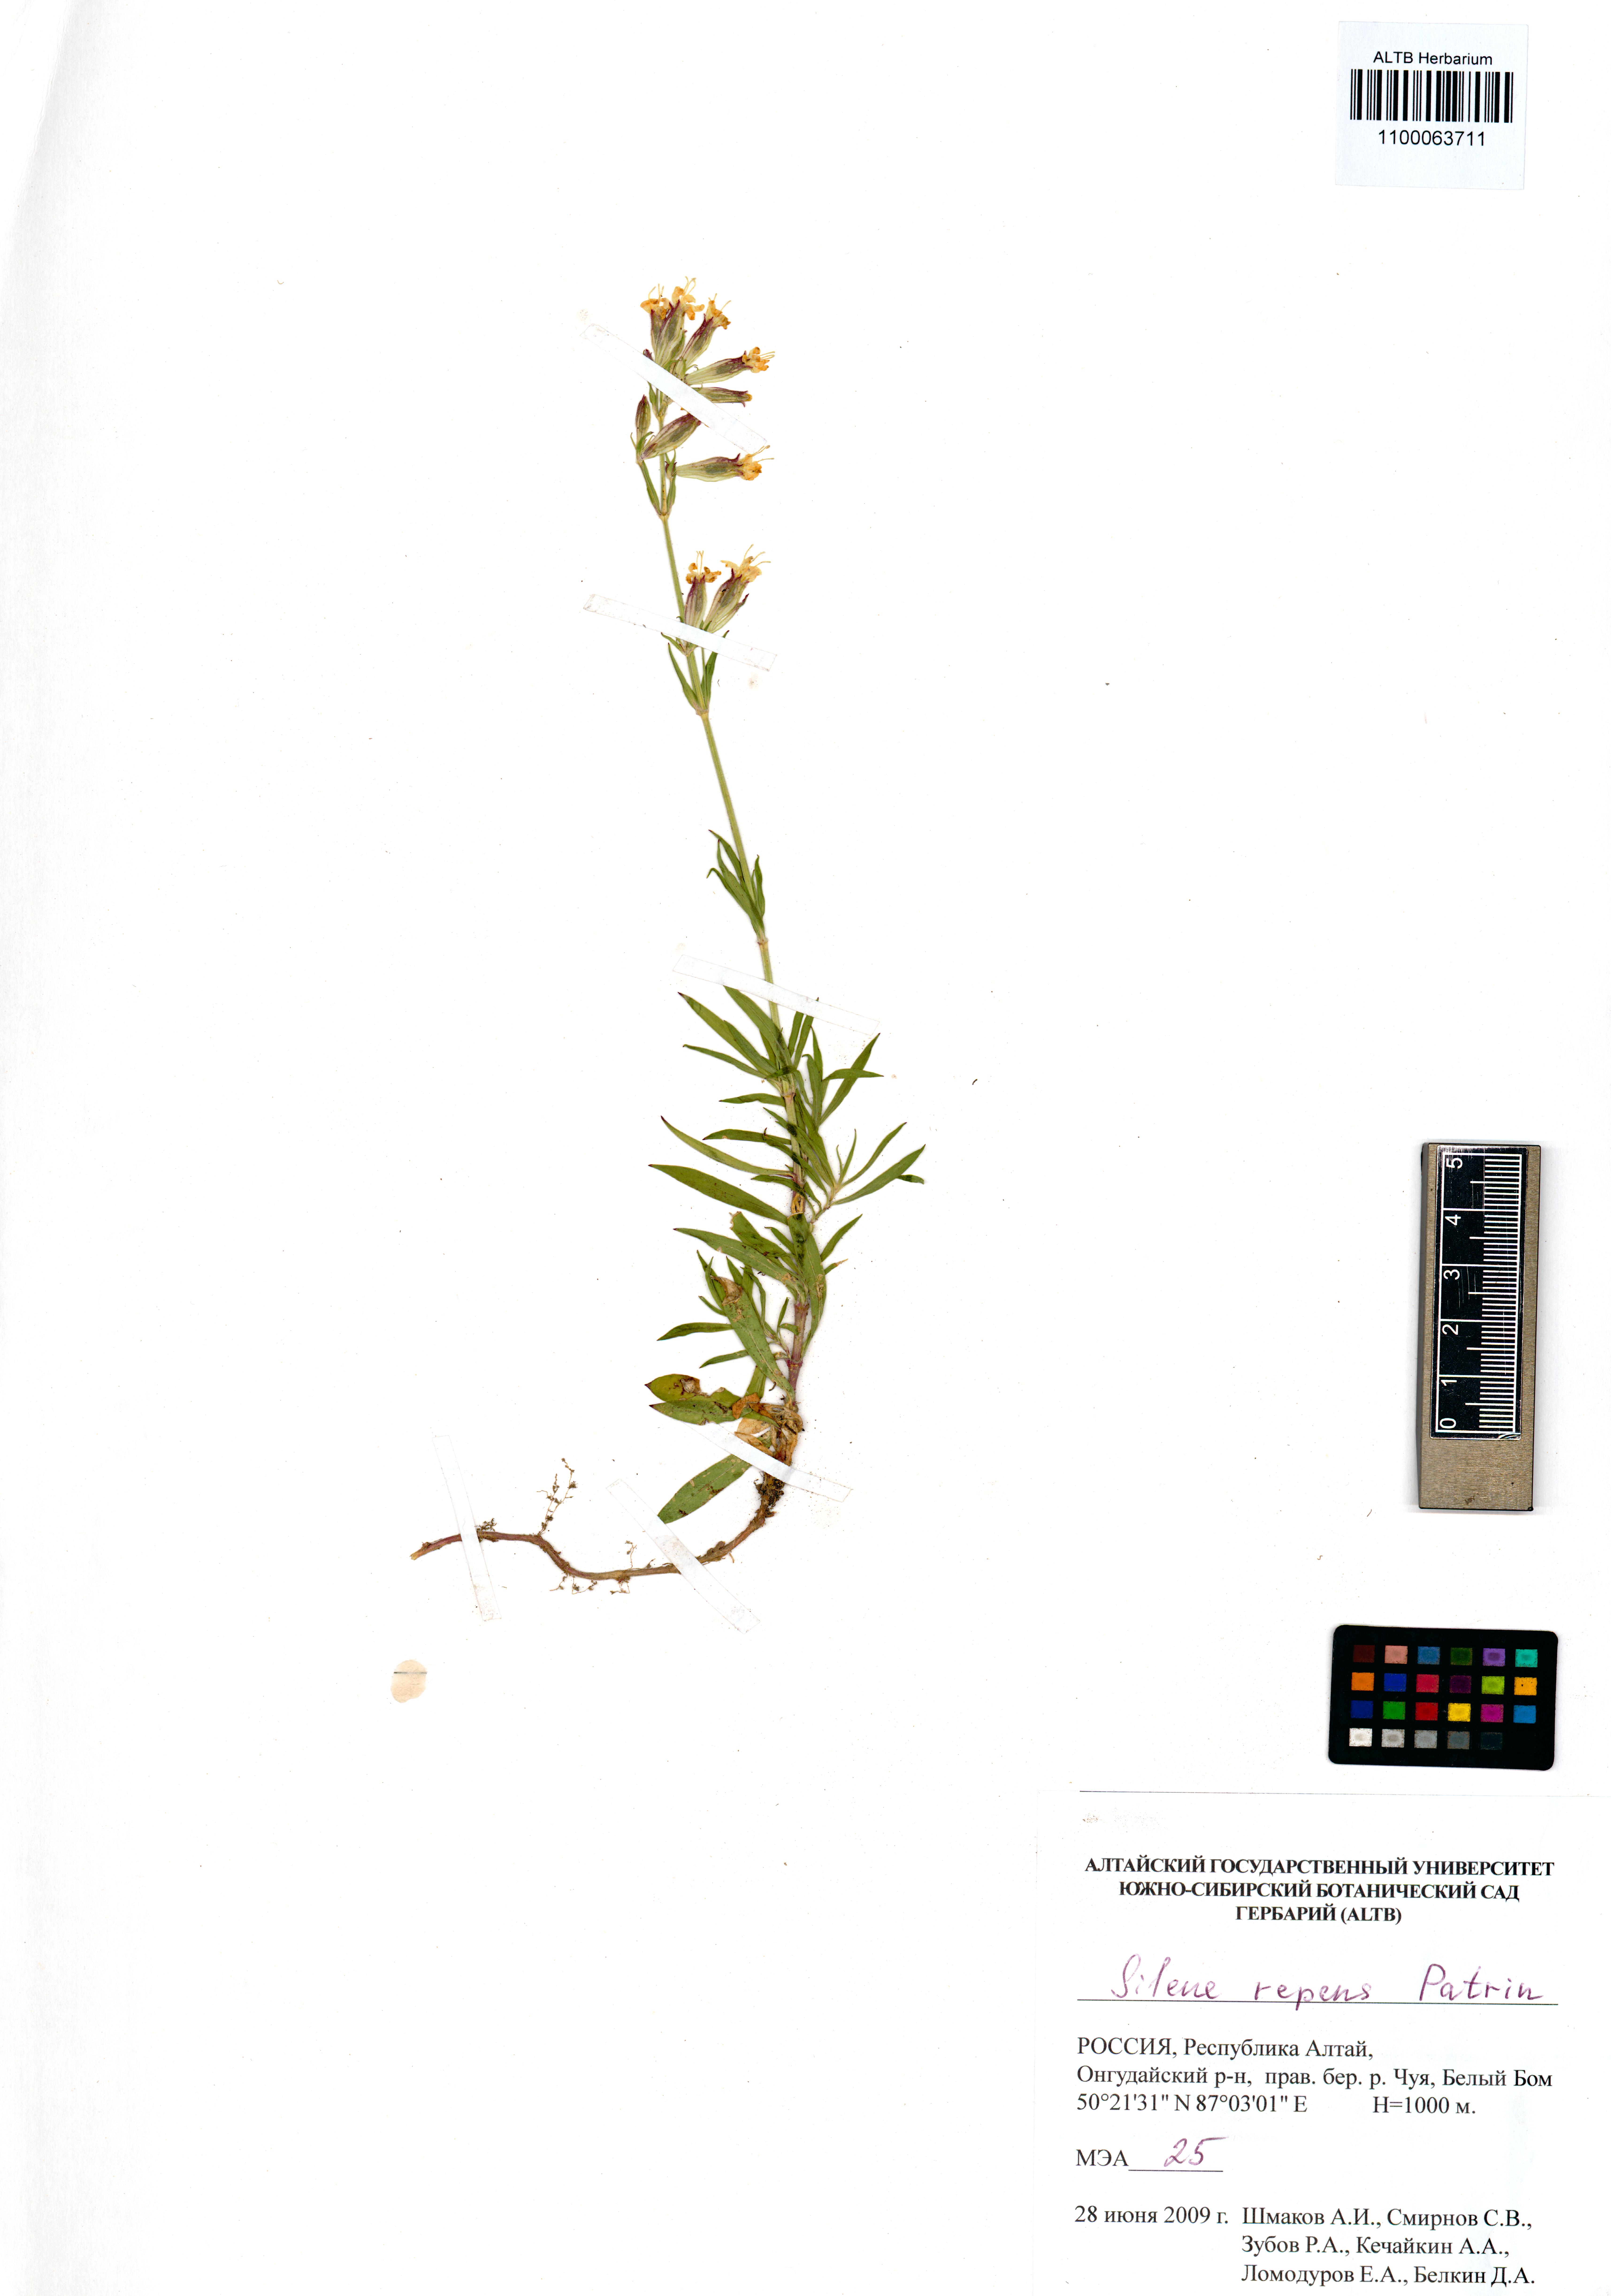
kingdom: Plantae
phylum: Tracheophyta
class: Magnoliopsida
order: Caryophyllales
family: Caryophyllaceae
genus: Silene
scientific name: Silene repens
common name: Pink campion
